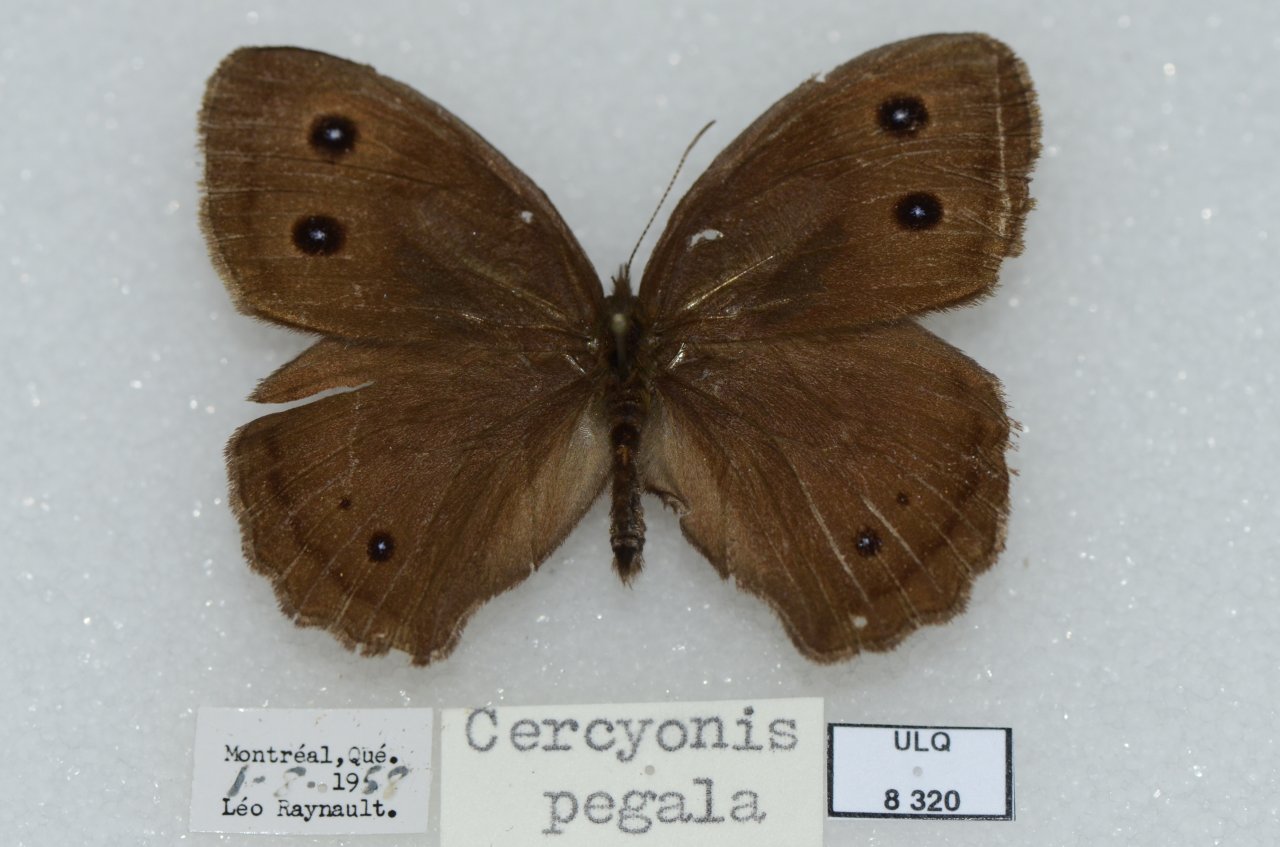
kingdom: Animalia
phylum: Arthropoda
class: Insecta
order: Lepidoptera
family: Nymphalidae
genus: Cercyonis
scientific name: Cercyonis pegala
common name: Common Wood-Nymph
